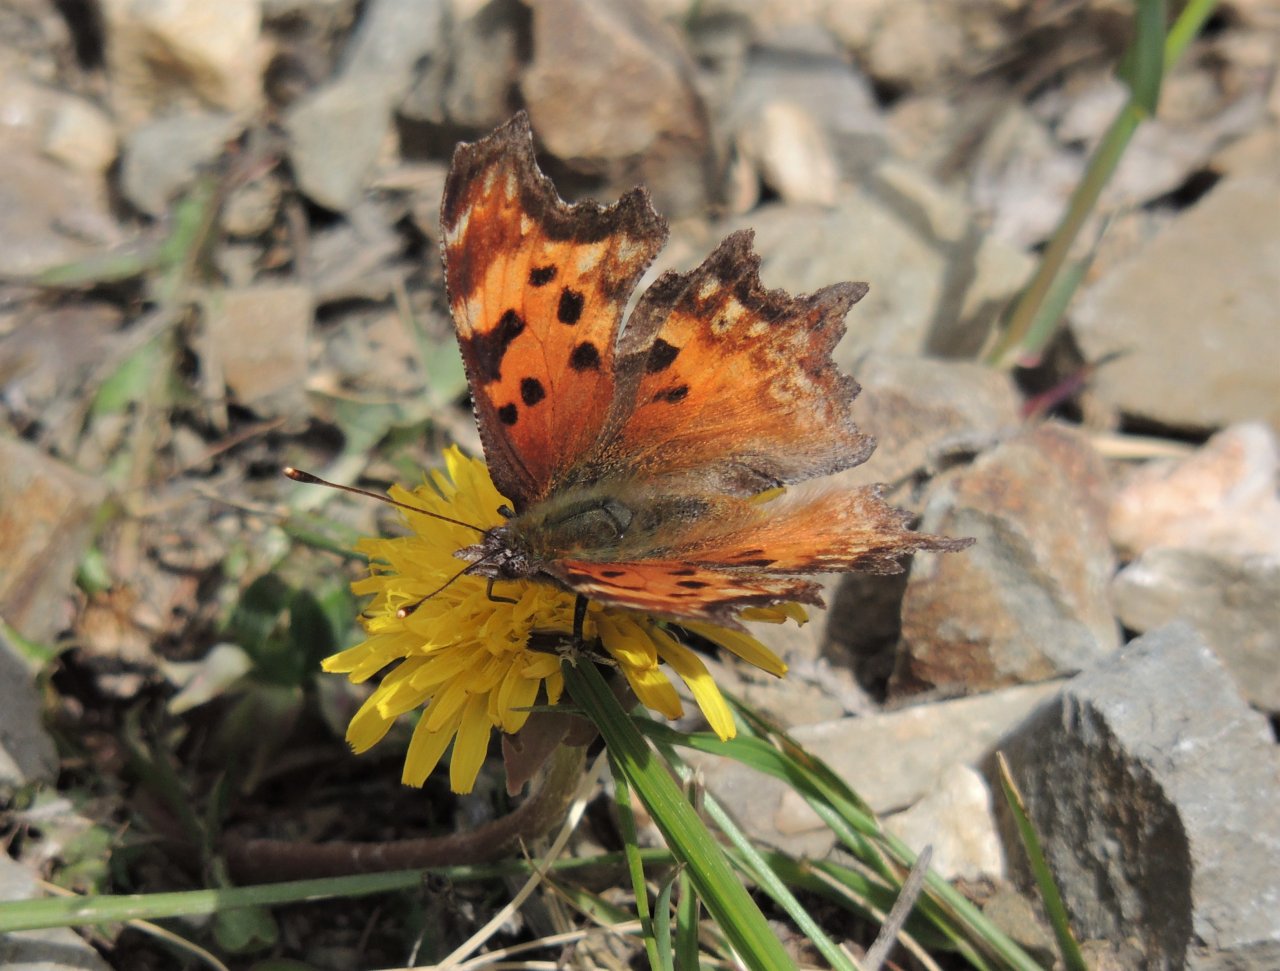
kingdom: Animalia
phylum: Arthropoda
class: Insecta
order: Lepidoptera
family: Nymphalidae
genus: Polygonia
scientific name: Polygonia gracilis
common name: Hoary Comma
